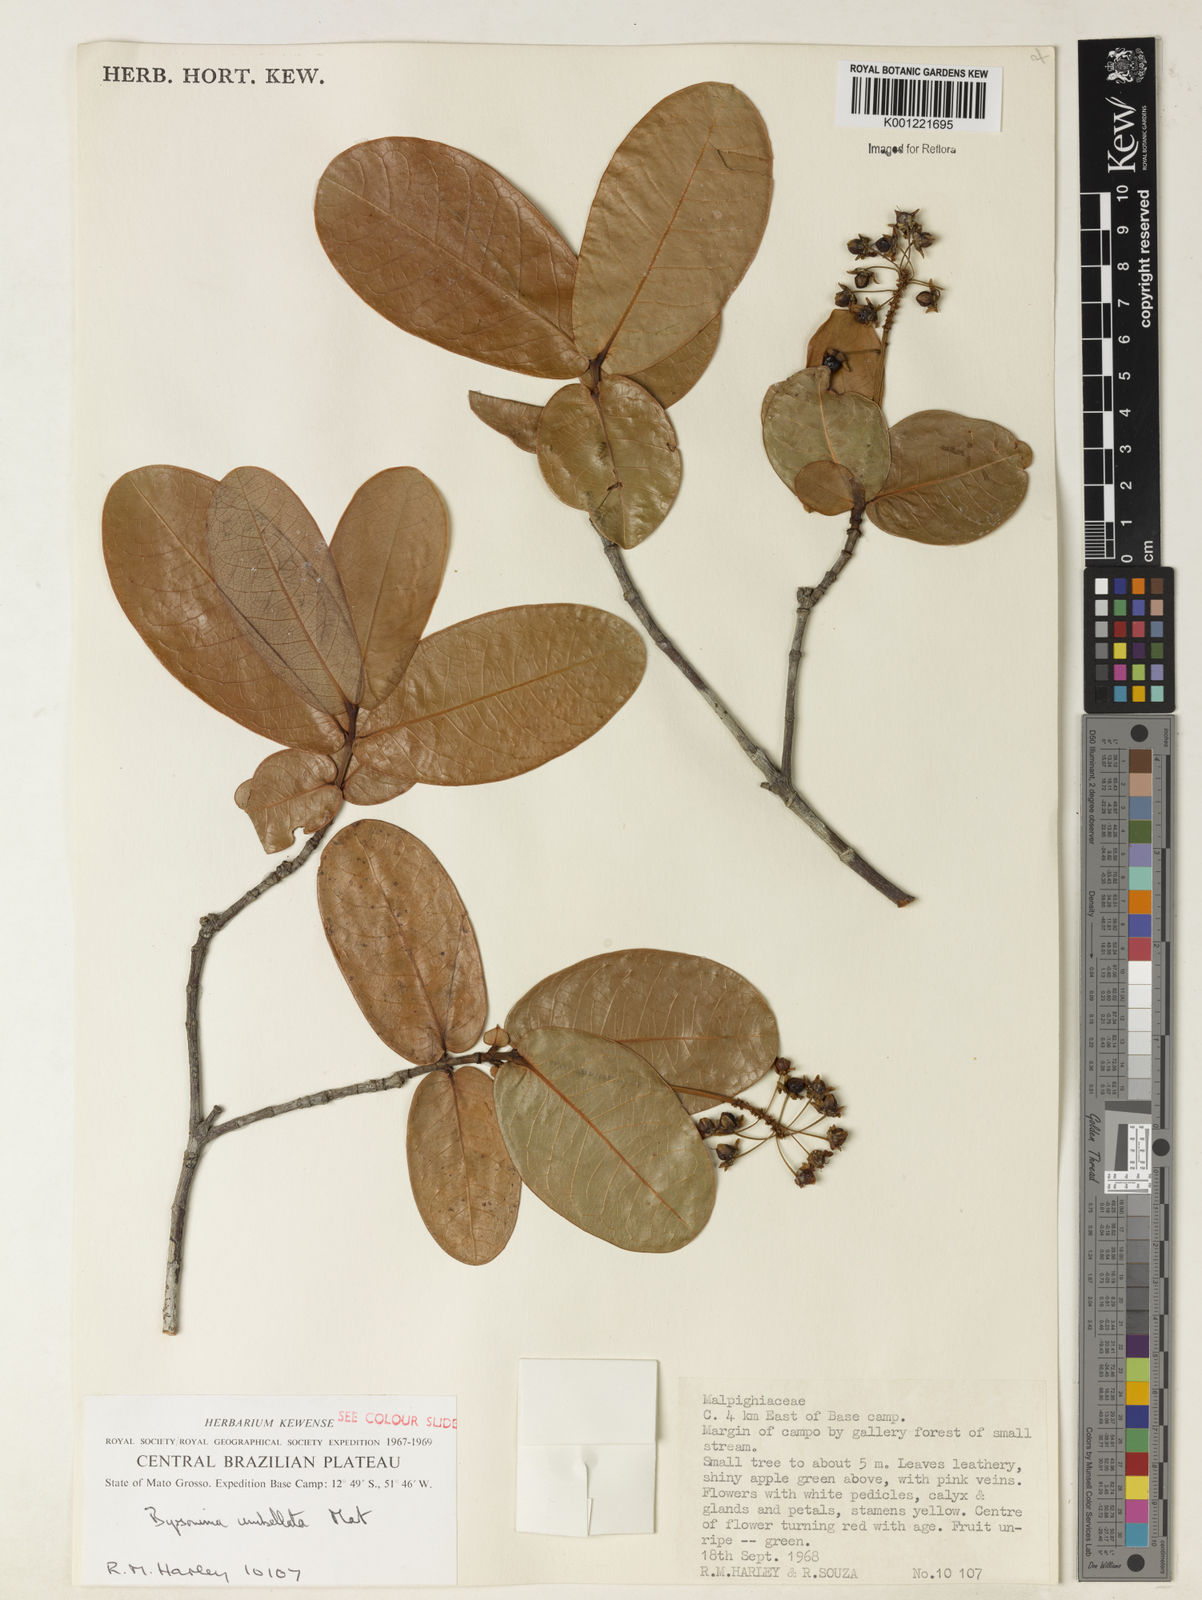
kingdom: Plantae
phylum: Tracheophyta
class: Magnoliopsida
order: Malpighiales
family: Malpighiaceae
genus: Byrsonima
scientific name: Byrsonima umbellata
